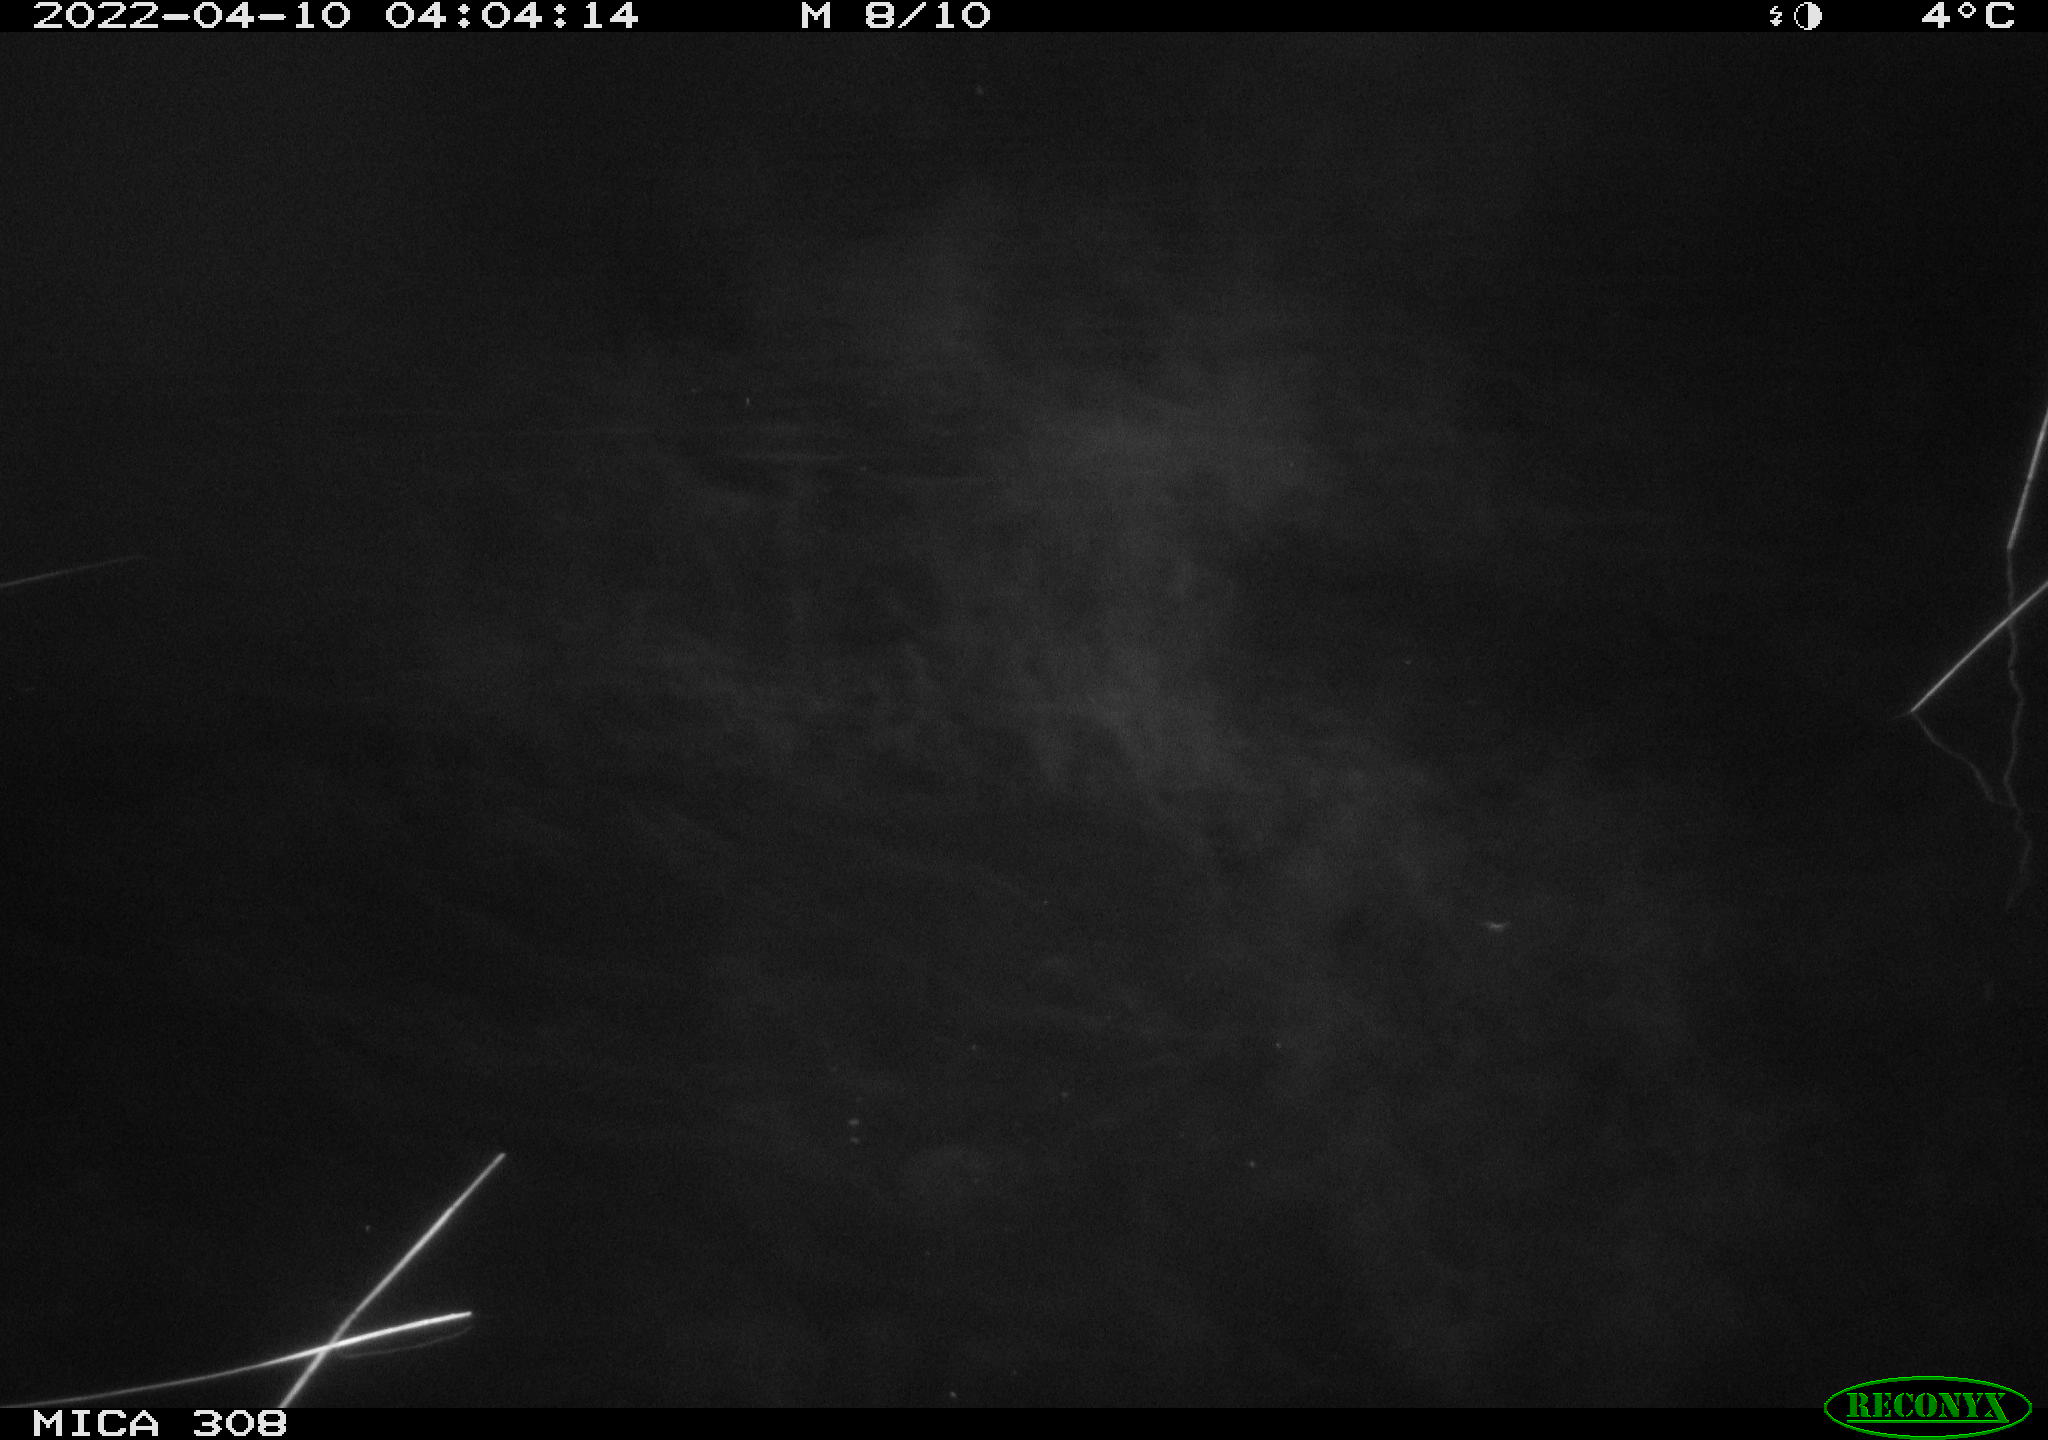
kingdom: Animalia
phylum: Chordata
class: Aves
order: Gruiformes
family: Rallidae
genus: Gallinula
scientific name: Gallinula chloropus
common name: Common moorhen
